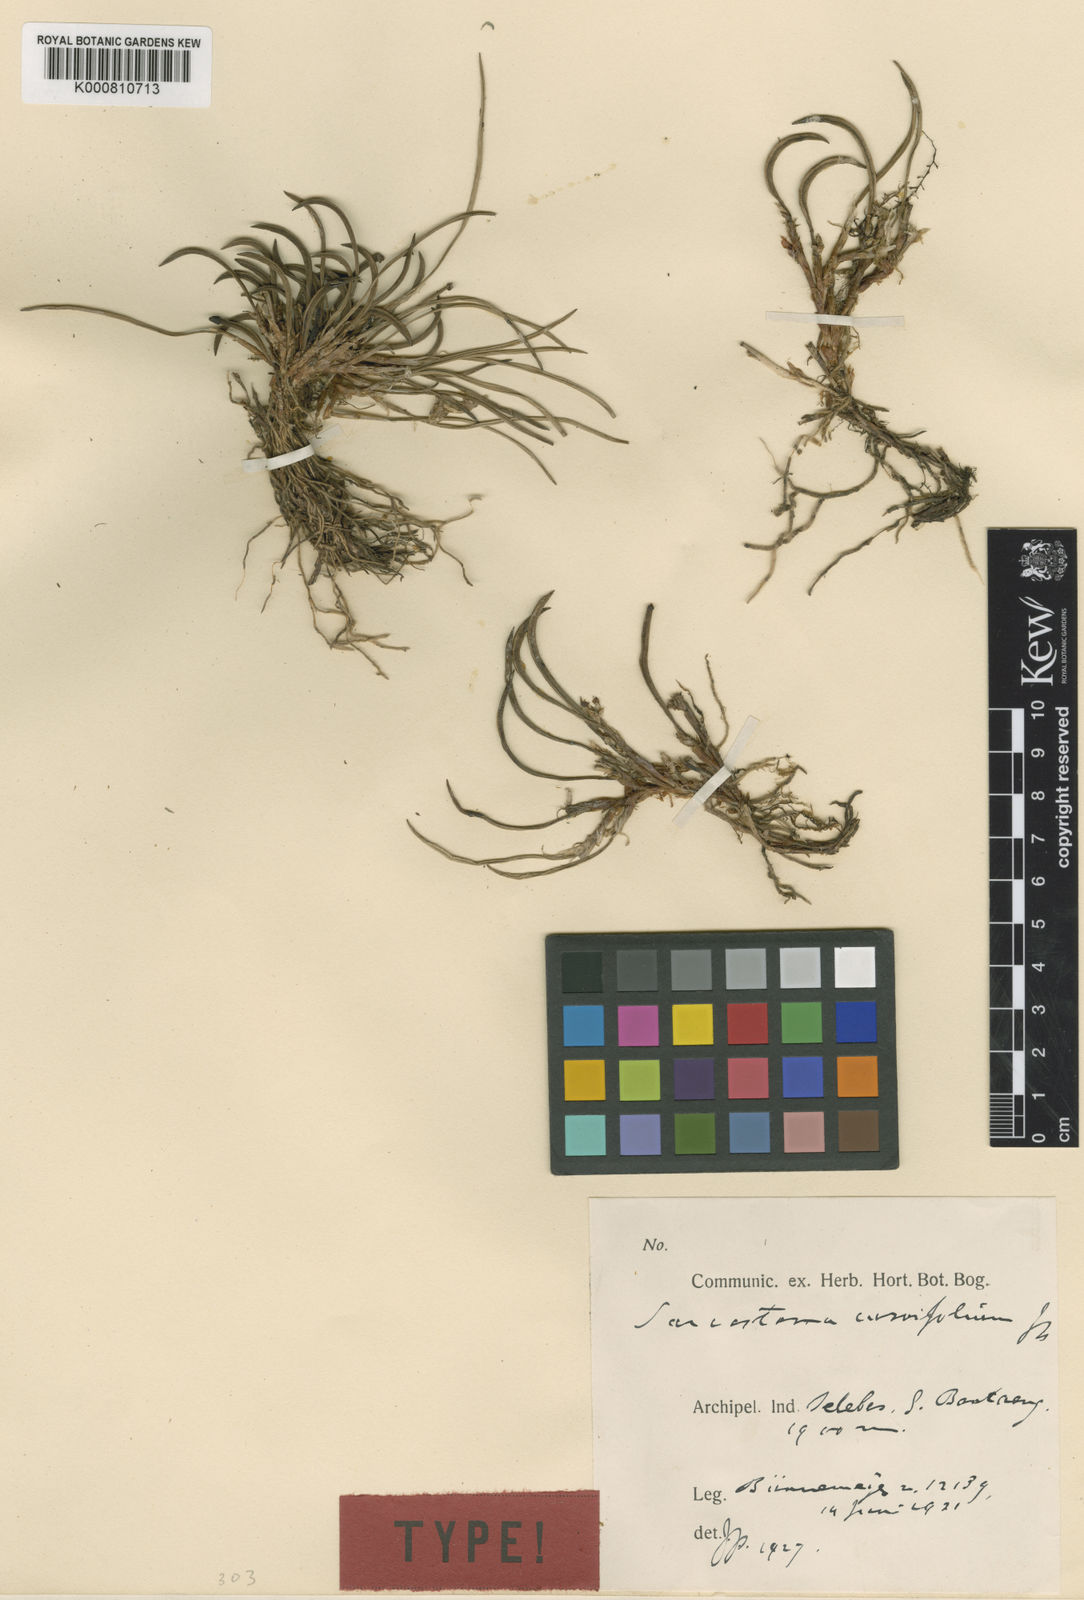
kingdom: Plantae
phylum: Tracheophyta
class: Liliopsida
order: Asparagales
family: Orchidaceae
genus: Ceratostylis
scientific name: Ceratostylis
